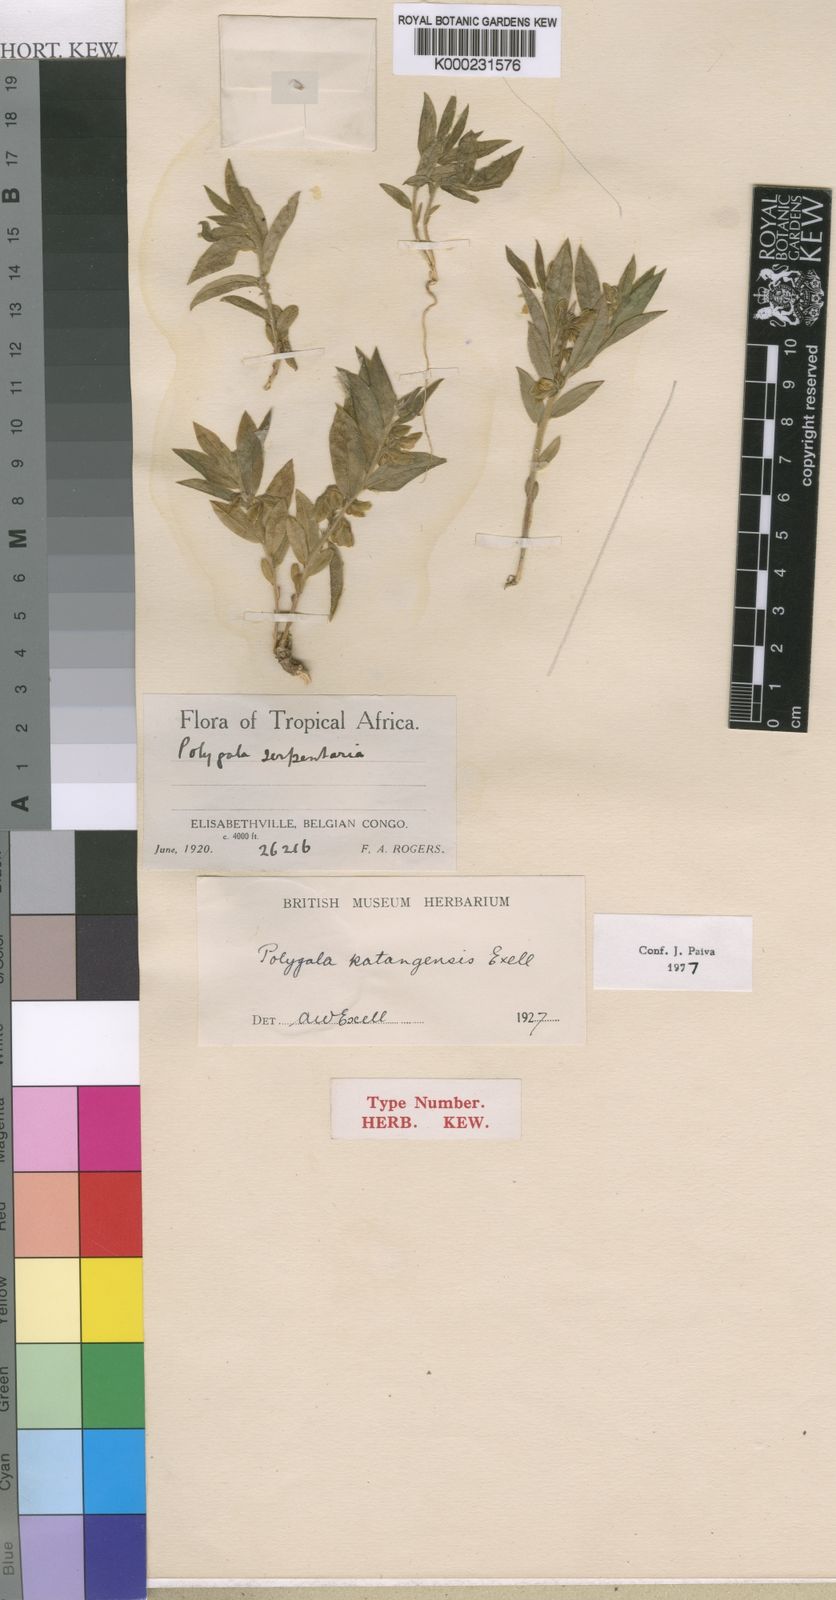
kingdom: Plantae
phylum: Tracheophyta
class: Magnoliopsida
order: Fabales
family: Polygalaceae
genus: Polygala
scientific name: Polygala myrtillopsis
